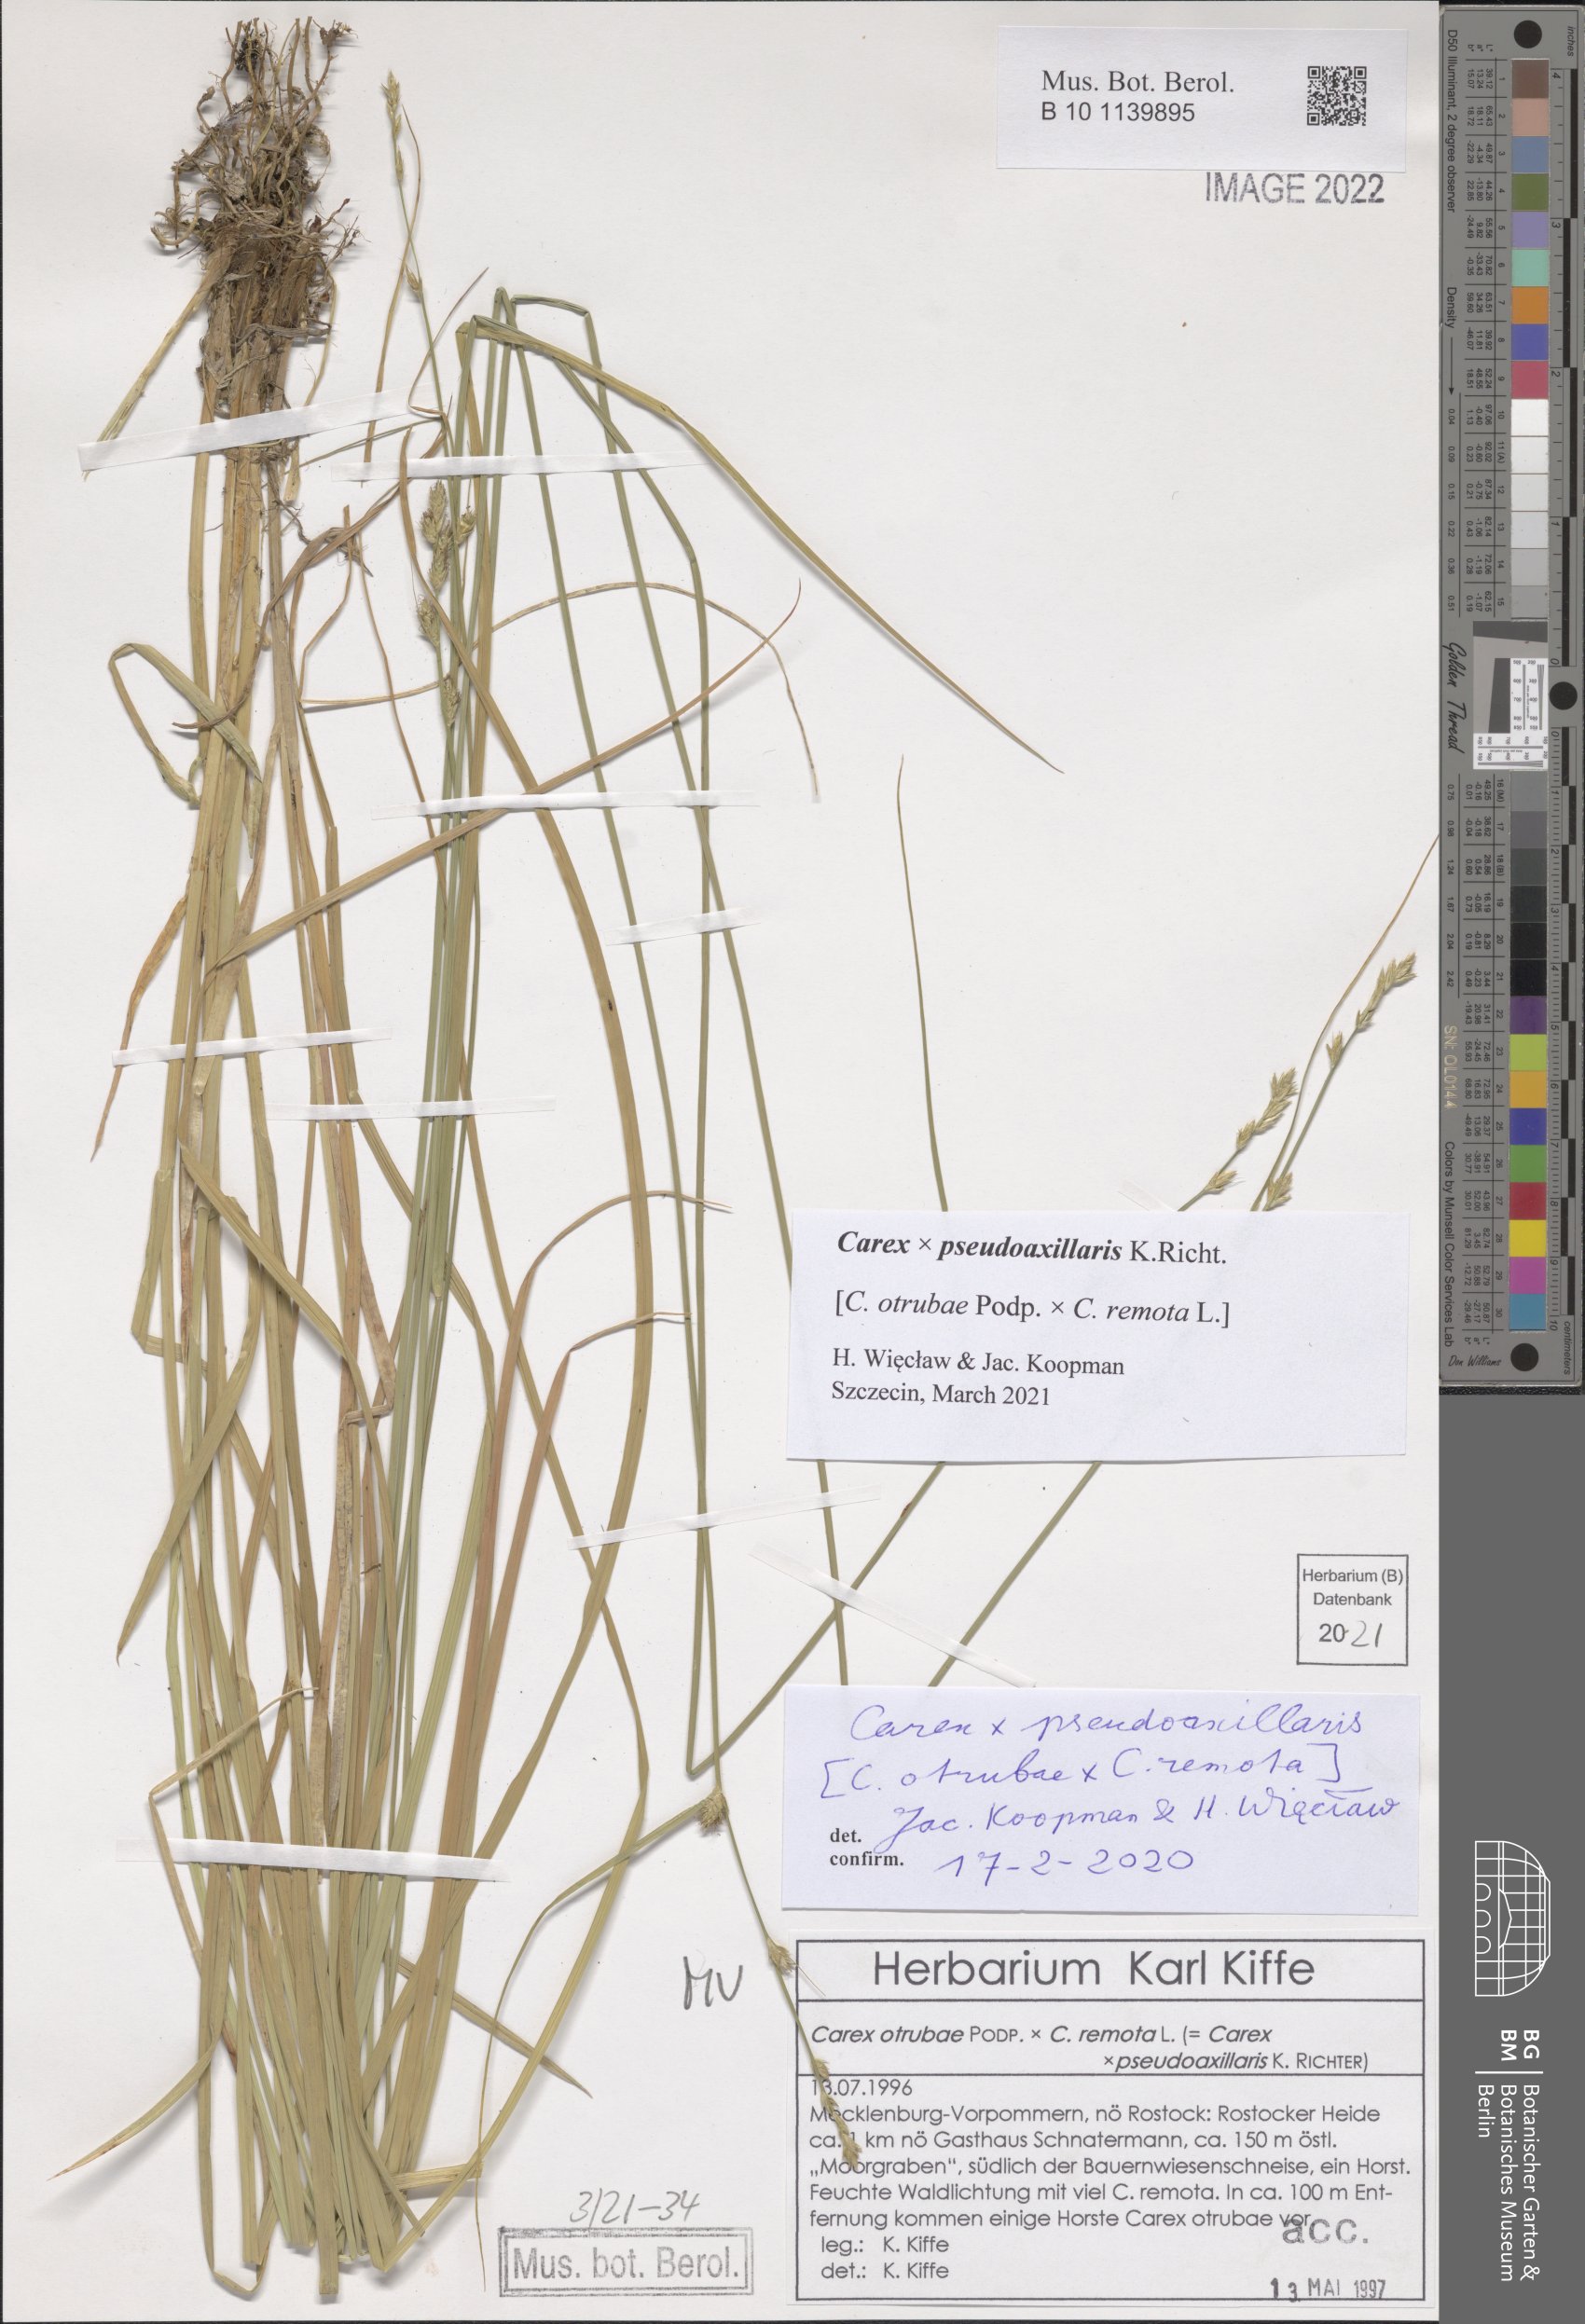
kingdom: Plantae
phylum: Tracheophyta
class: Liliopsida
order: Poales
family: Cyperaceae
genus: Carex
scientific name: Carex pseudoaxillaris
